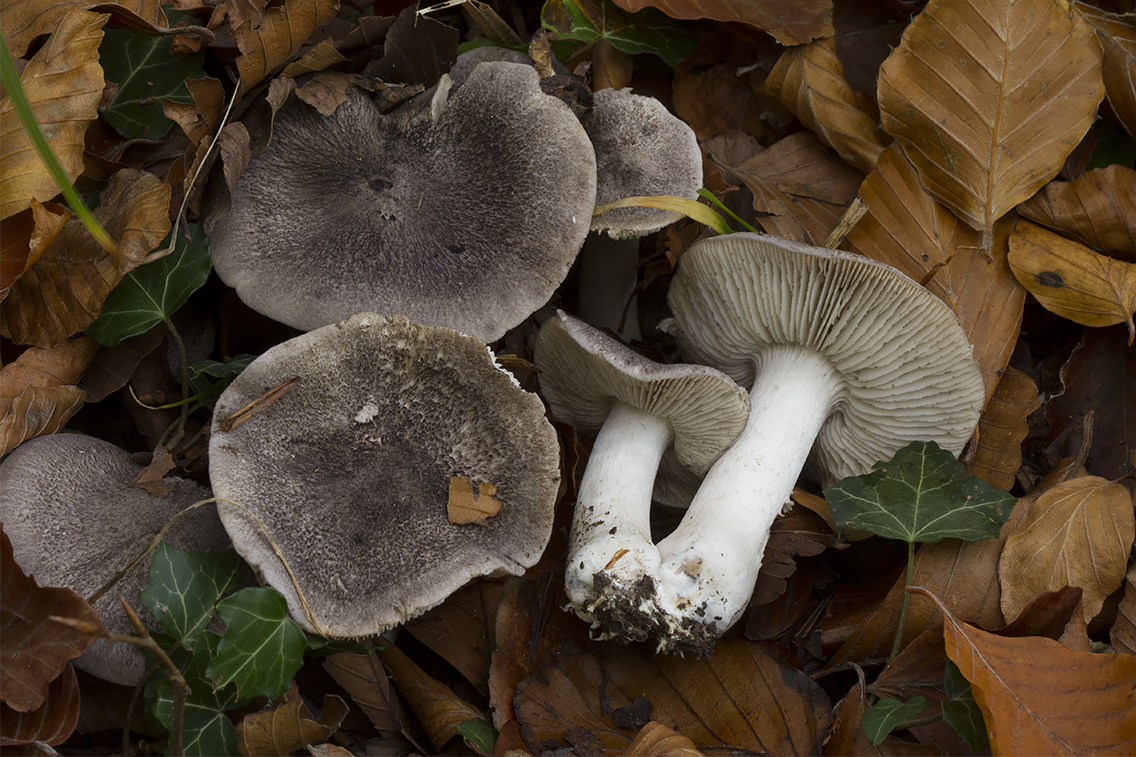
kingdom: Fungi
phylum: Basidiomycota
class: Agaricomycetes
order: Agaricales
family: Tricholomataceae
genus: Tricholoma
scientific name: Tricholoma orirubens
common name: rødbladet ridderhat
